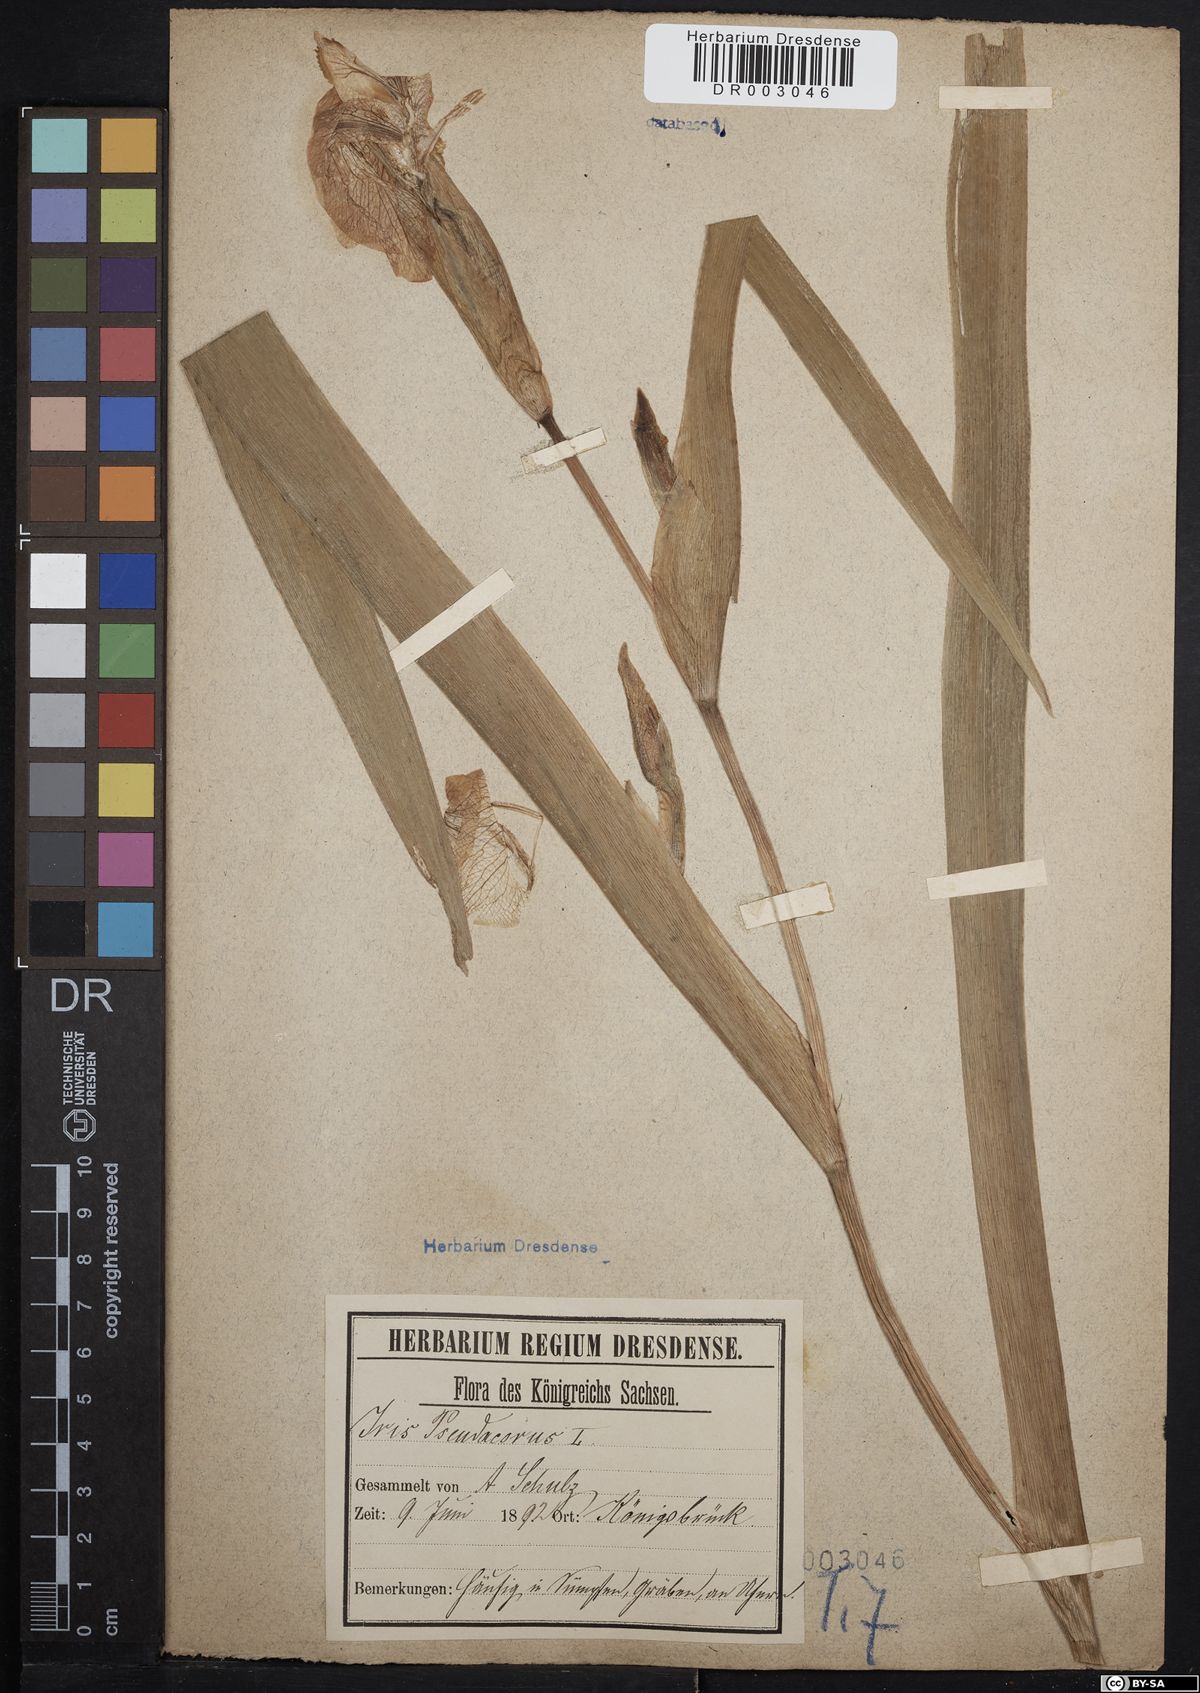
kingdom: Plantae
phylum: Tracheophyta
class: Liliopsida
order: Asparagales
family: Iridaceae
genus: Iris
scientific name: Iris pseudacorus
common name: Yellow flag
